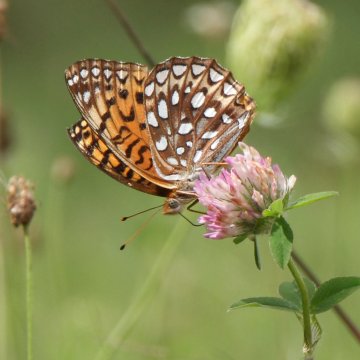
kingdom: Animalia
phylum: Arthropoda
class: Insecta
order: Lepidoptera
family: Nymphalidae
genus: Speyeria
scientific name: Speyeria atlantis
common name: Atlantis Fritillary
